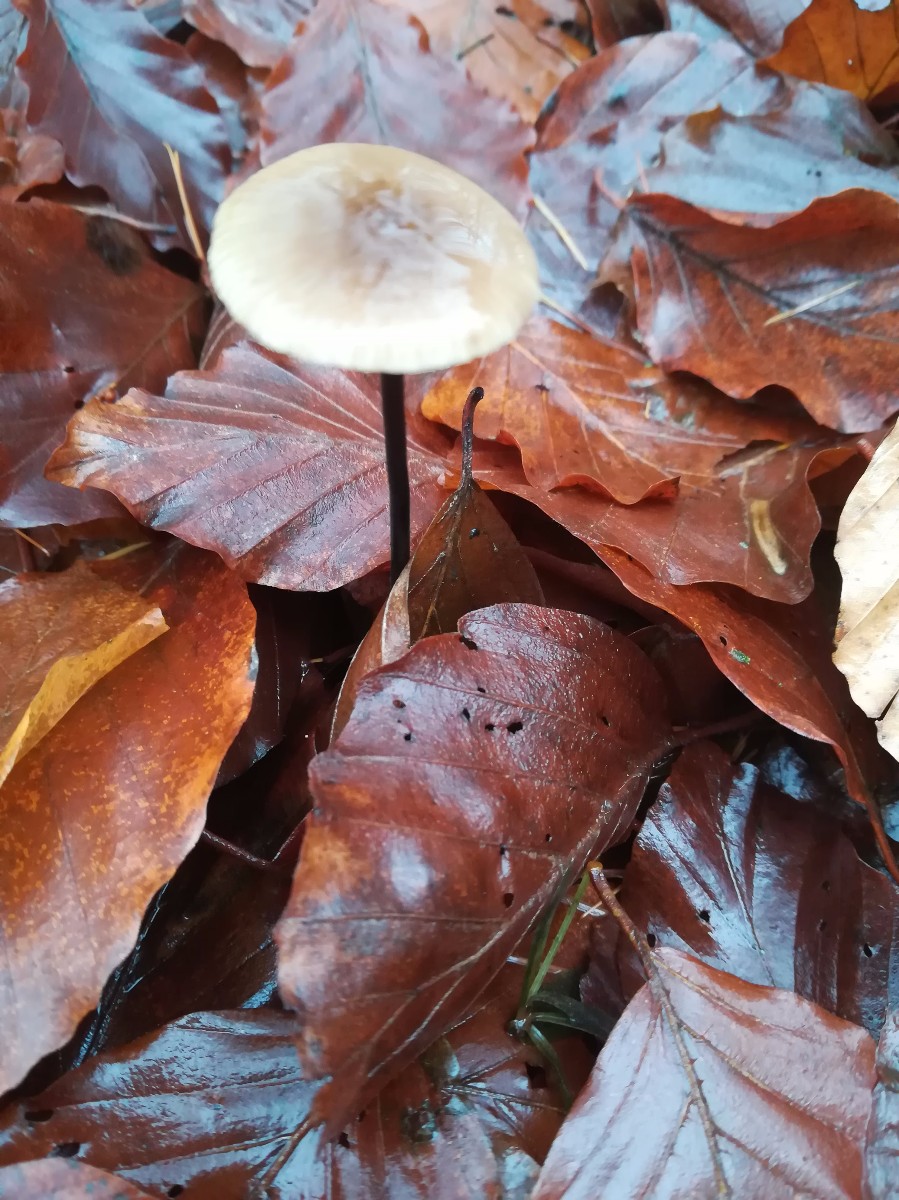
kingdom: Fungi
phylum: Basidiomycota
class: Agaricomycetes
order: Agaricales
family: Omphalotaceae
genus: Mycetinis
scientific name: Mycetinis alliaceus
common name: stor løghat
